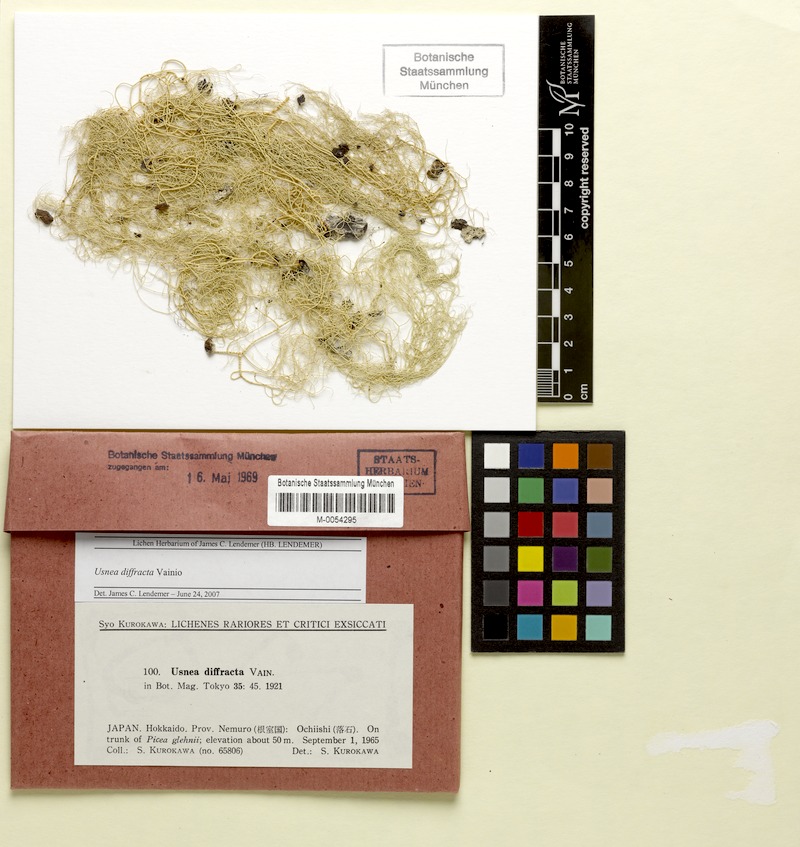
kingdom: Fungi
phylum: Ascomycota
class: Lecanoromycetes
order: Lecanorales
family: Parmeliaceae
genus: Dolichousnea
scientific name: Dolichousnea diffracta
